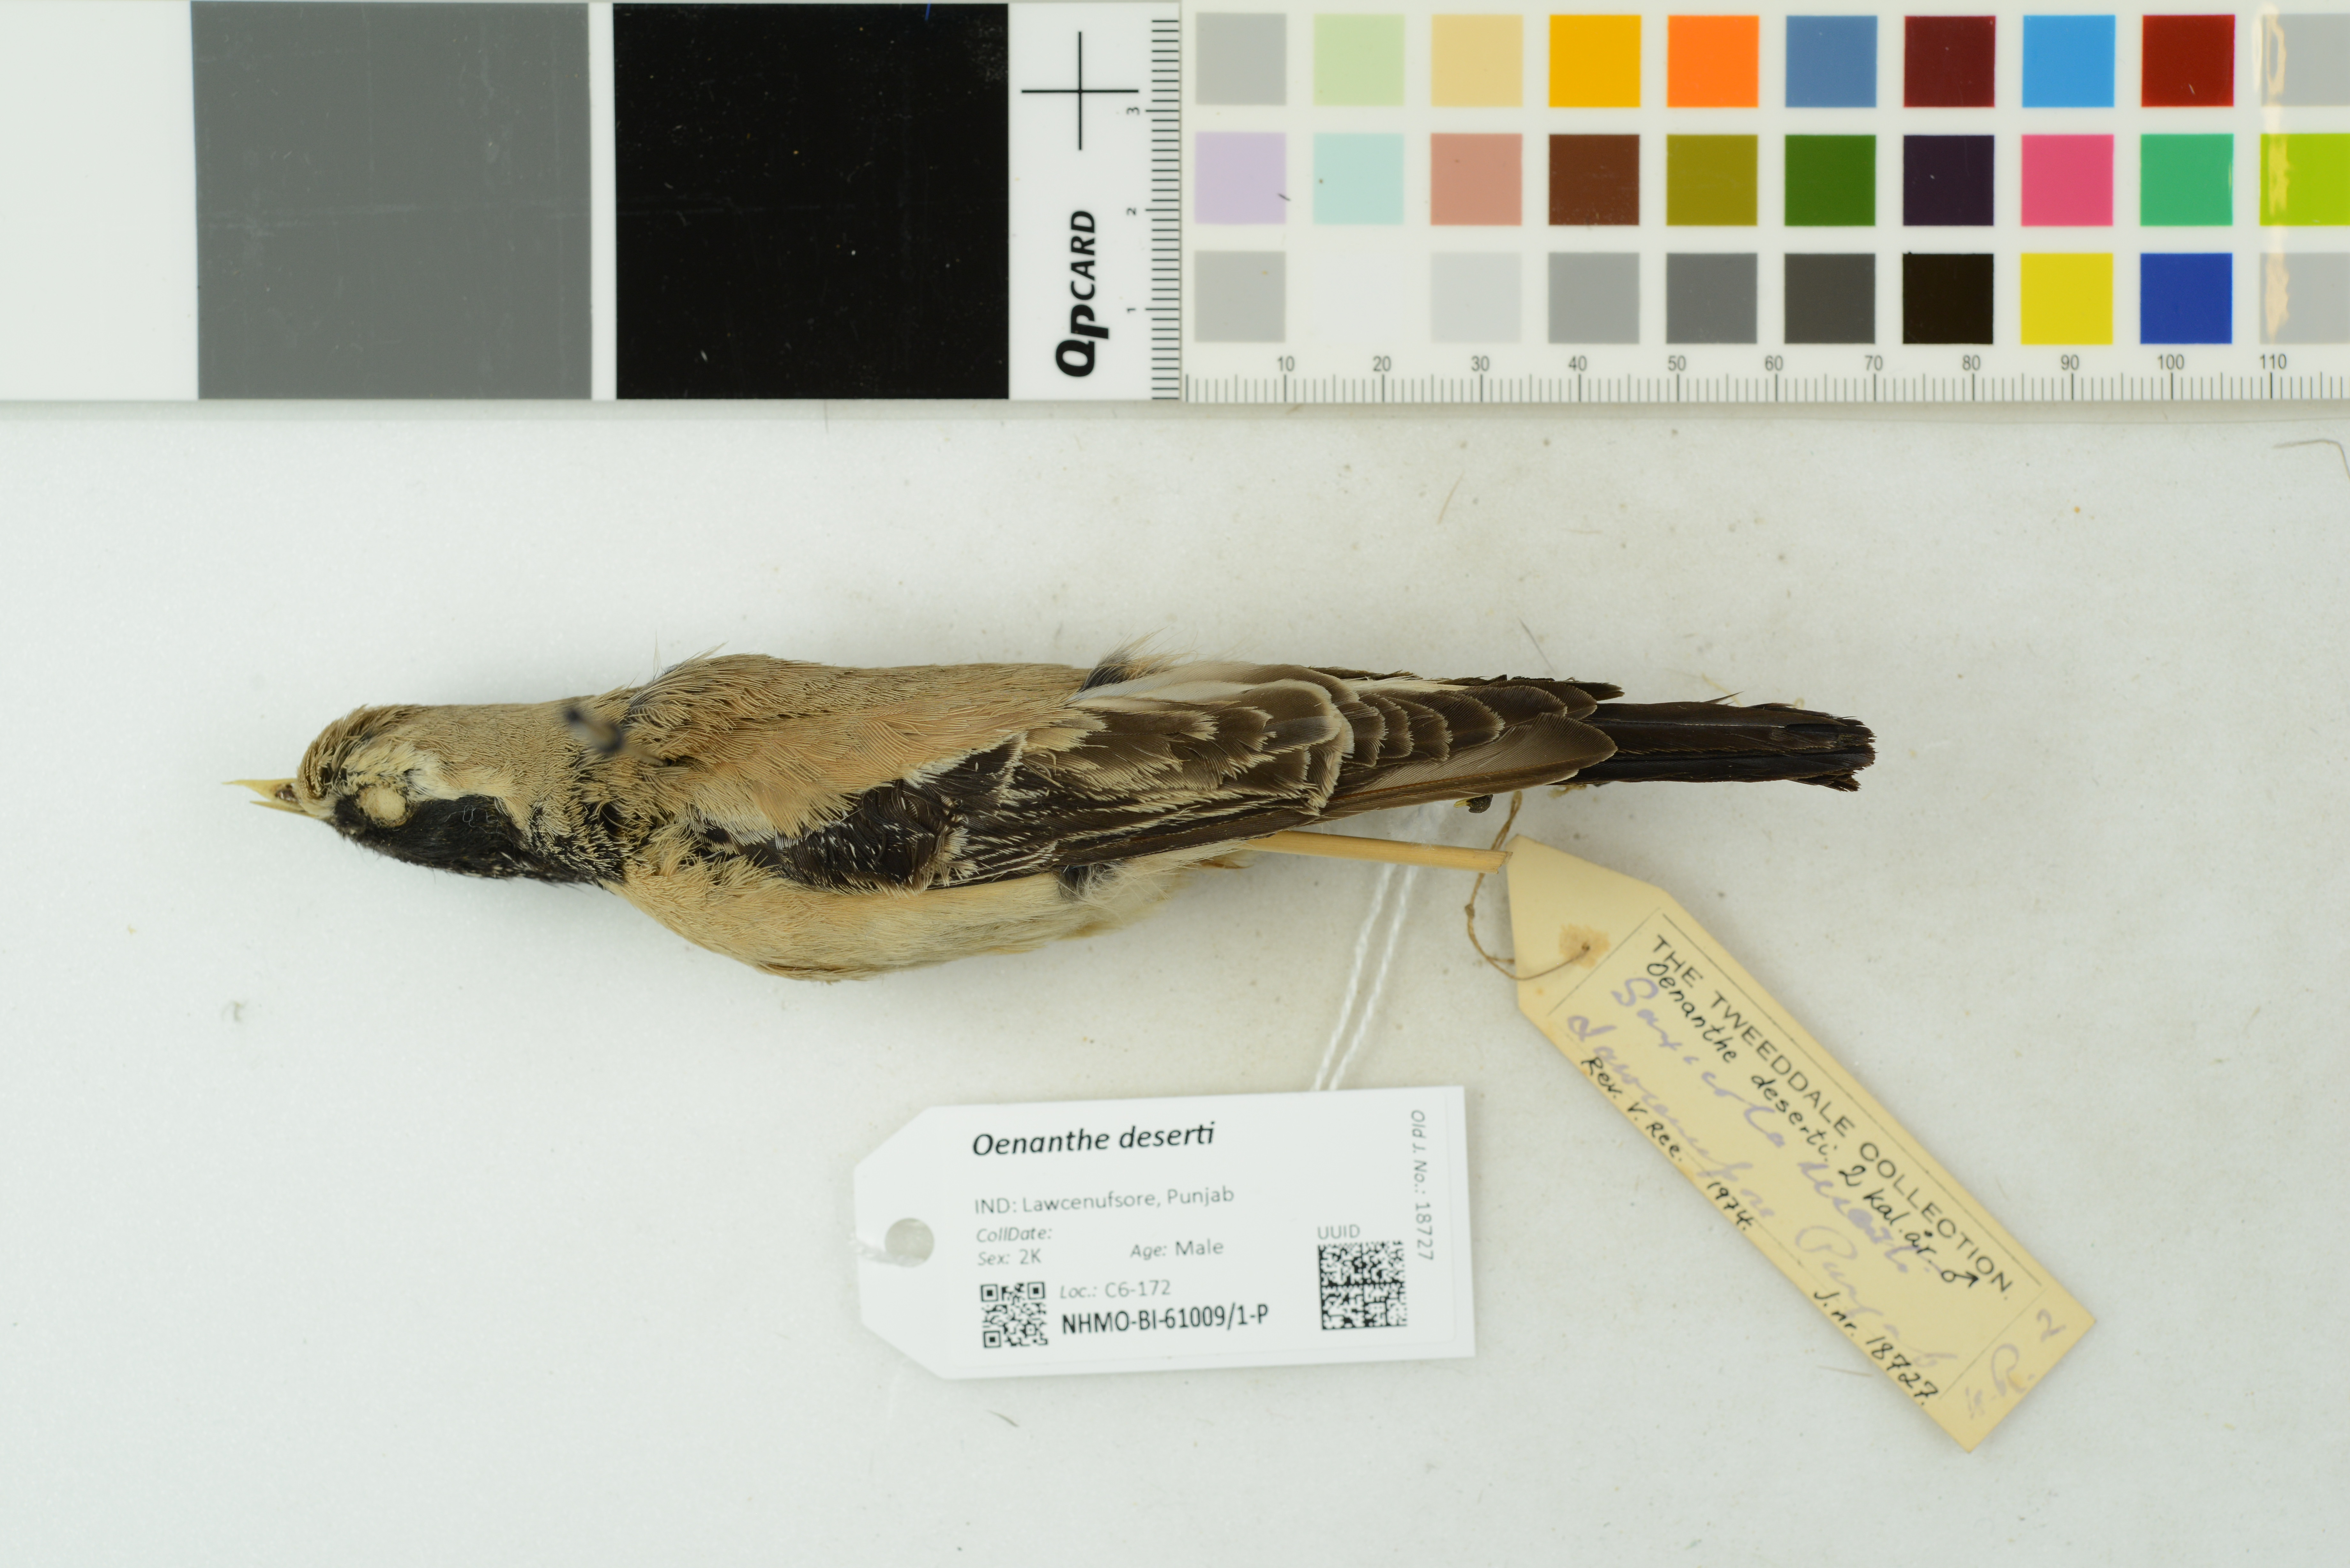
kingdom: Animalia
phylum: Chordata
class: Aves
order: Passeriformes
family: Muscicapidae
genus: Oenanthe
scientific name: Oenanthe deserti
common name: Desert wheatear
